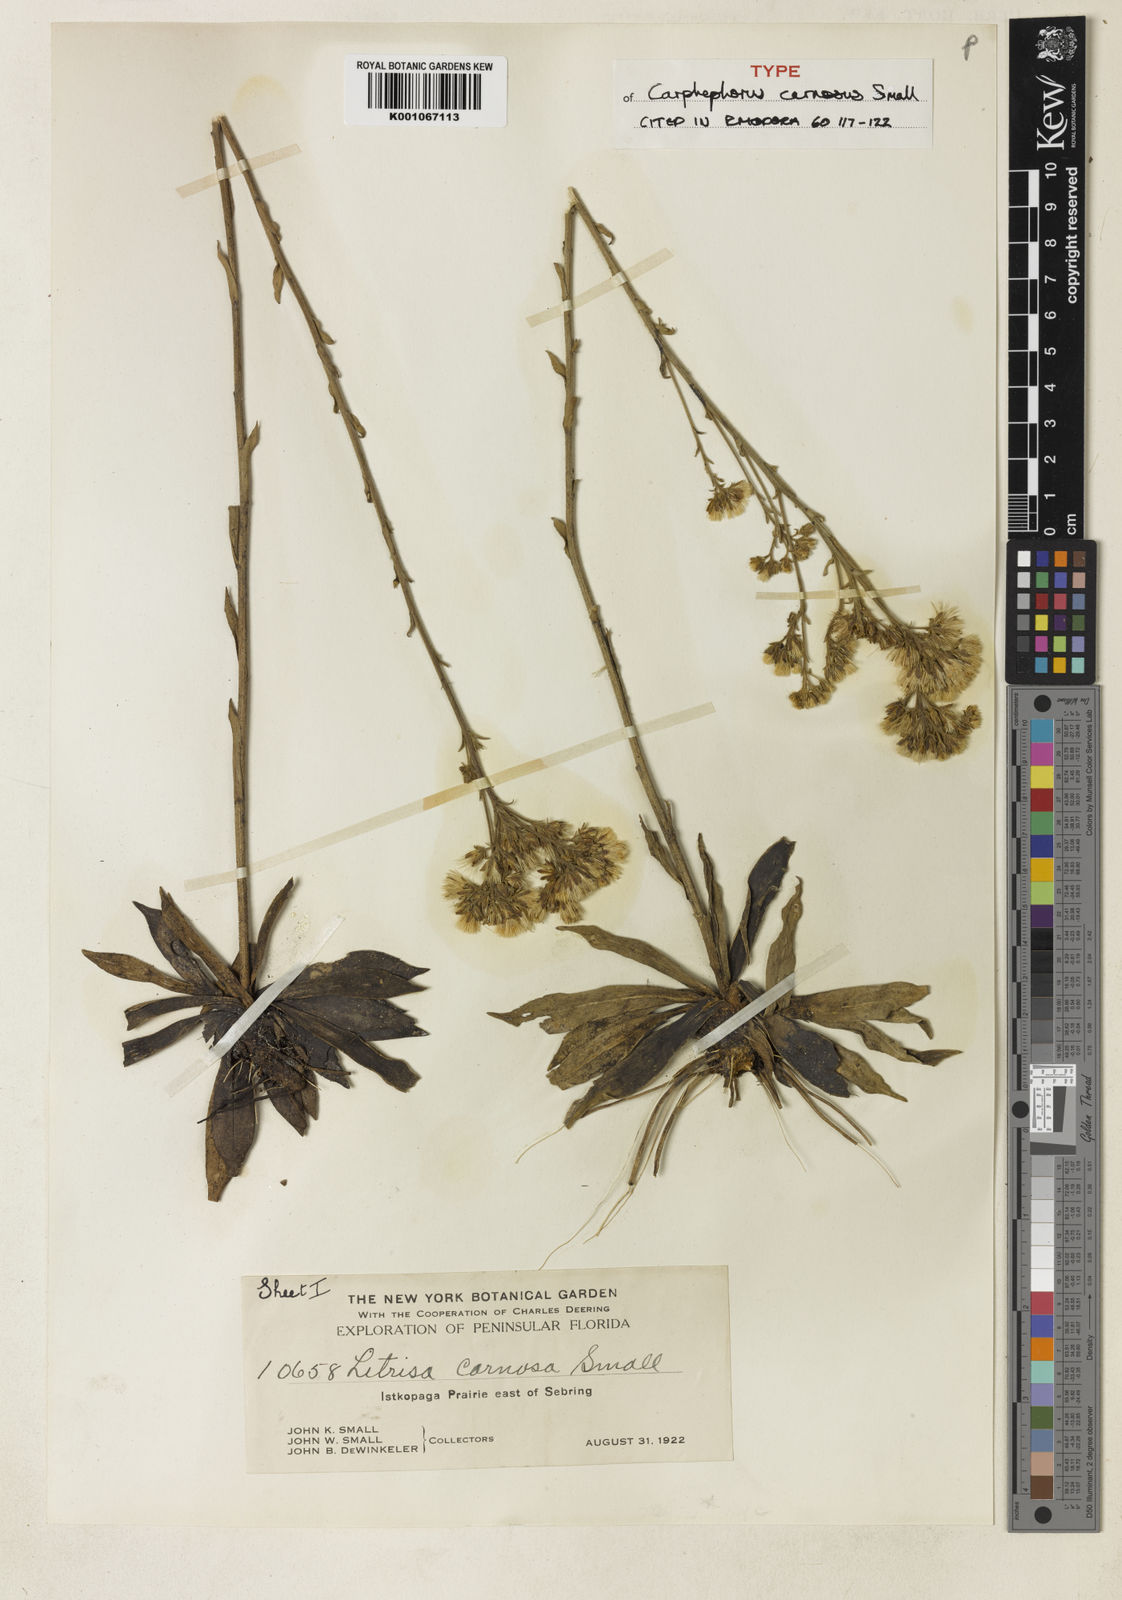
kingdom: Plantae
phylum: Tracheophyta
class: Magnoliopsida
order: Asterales
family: Asteraceae
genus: Carphephorus
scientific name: Carphephorus carnosus
